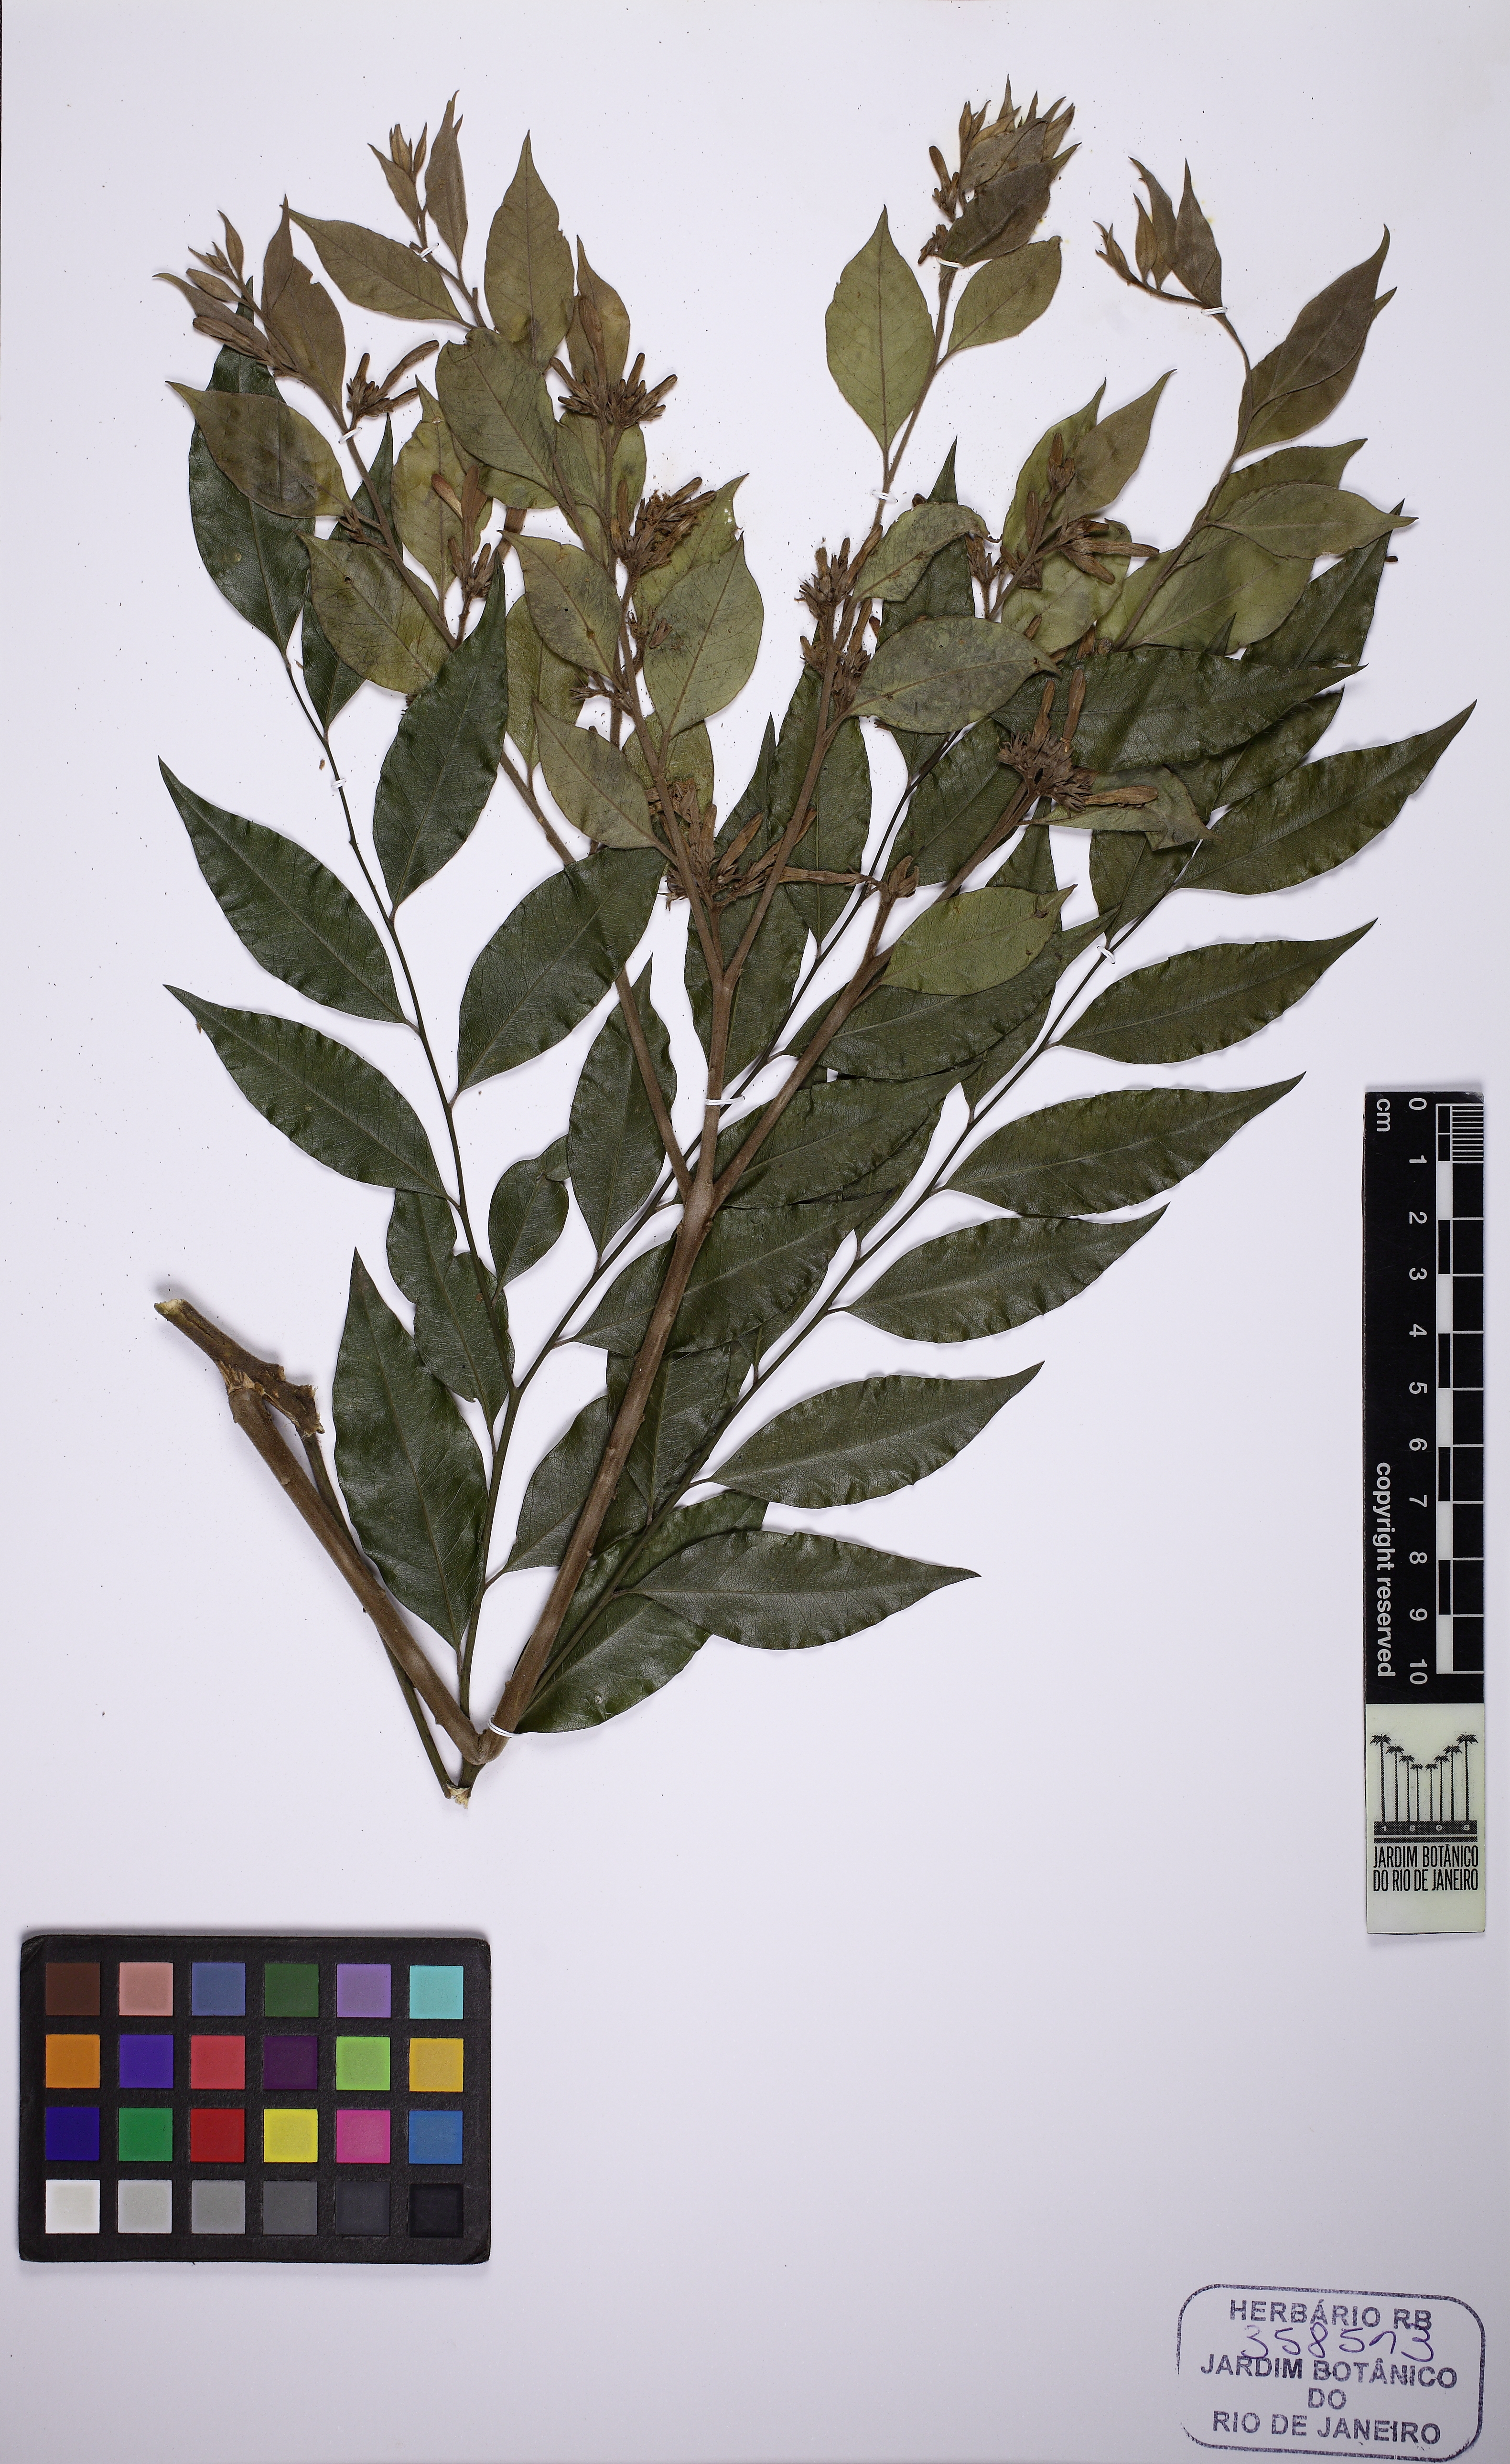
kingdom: Plantae
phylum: Tracheophyta
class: Magnoliopsida
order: Gentianales
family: Apocynaceae
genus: Geissospermum
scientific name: Geissospermum laeve
